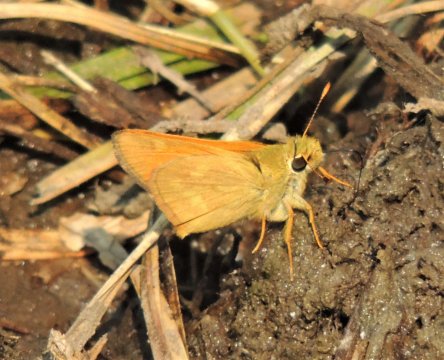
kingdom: Animalia
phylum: Arthropoda
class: Insecta
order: Lepidoptera
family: Hesperiidae
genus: Ochlodes
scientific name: Ochlodes sylvanoides
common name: Woodland Skipper
